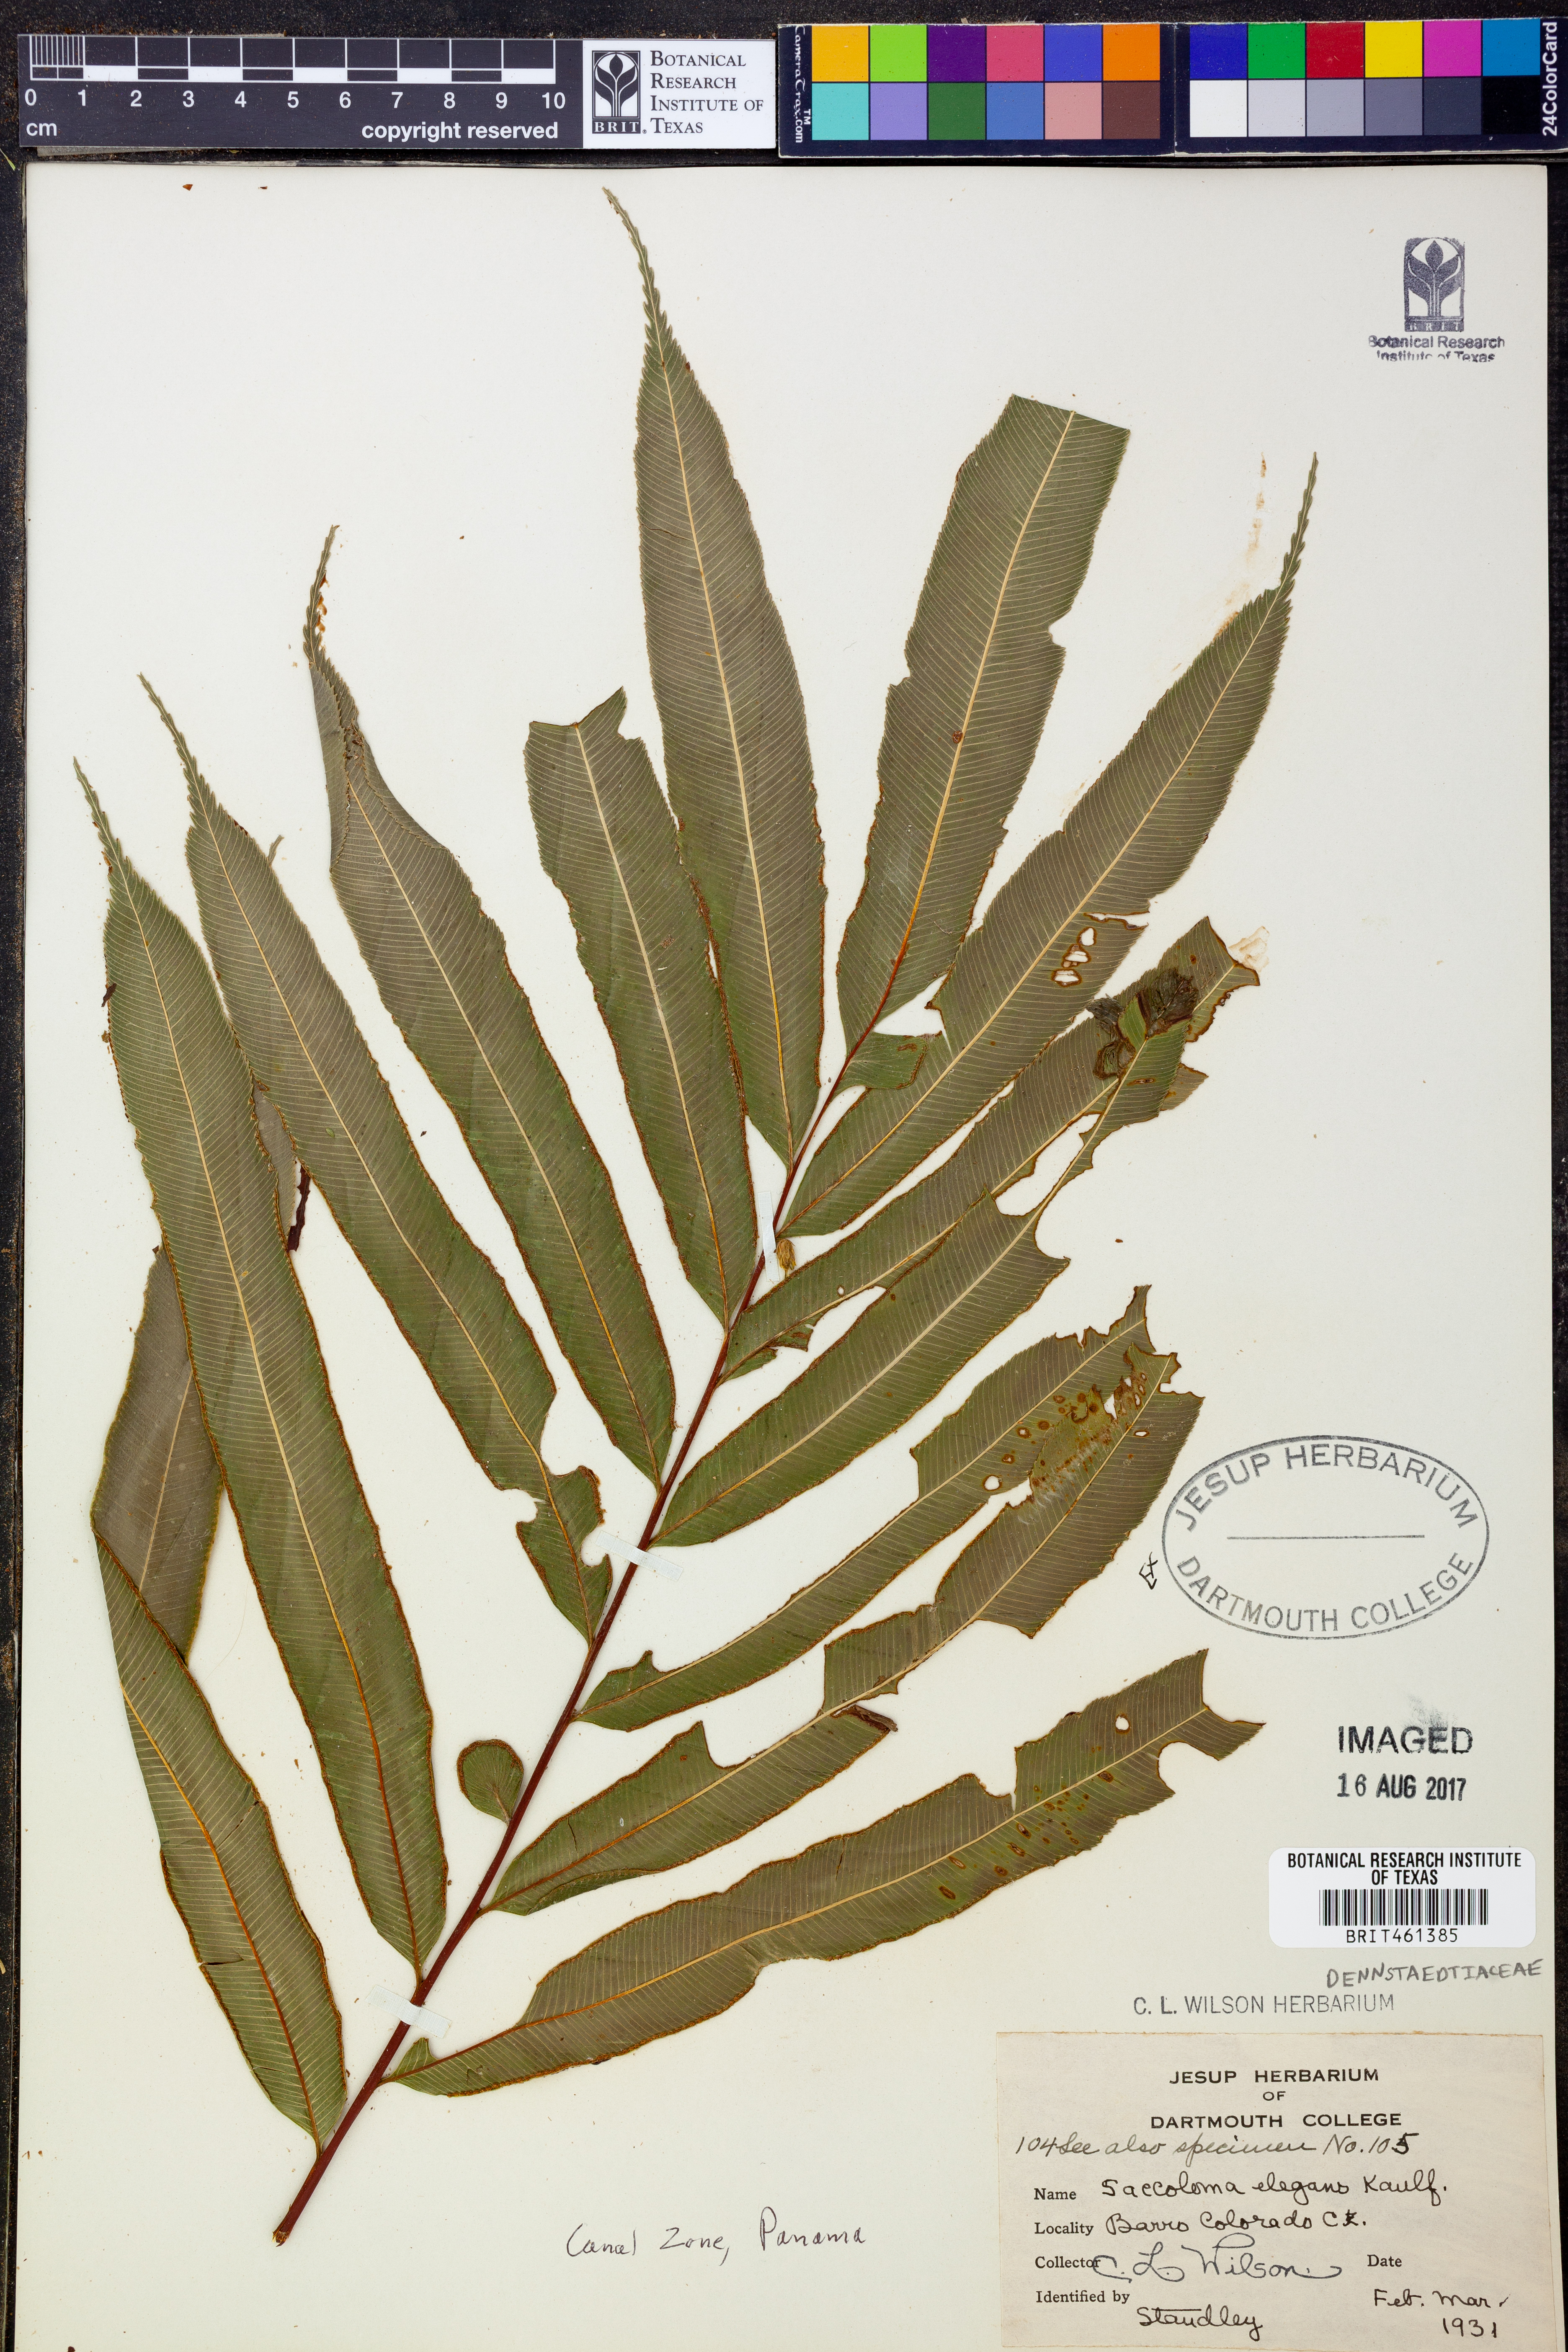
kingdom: Plantae
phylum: Tracheophyta
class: Polypodiopsida
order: Polypodiales
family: Saccolomataceae
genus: Saccoloma
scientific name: Saccoloma elegans
